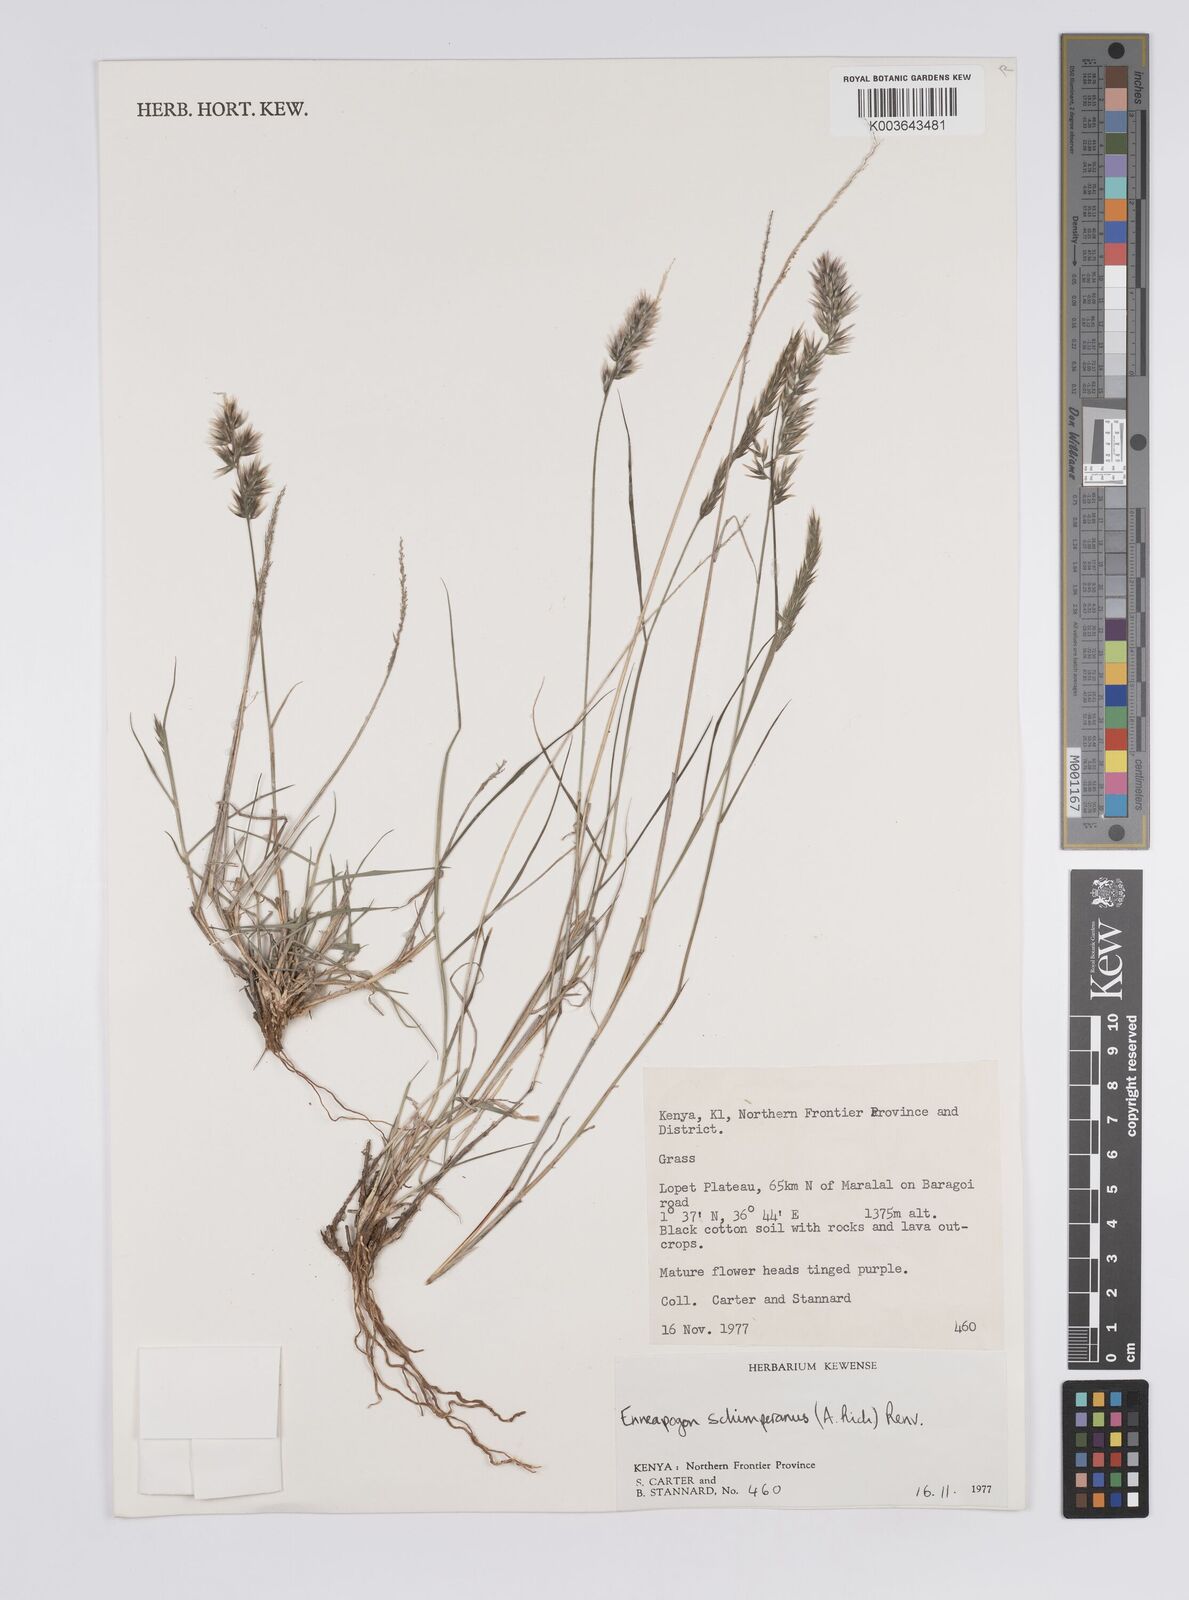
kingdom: Plantae
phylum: Tracheophyta
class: Liliopsida
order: Poales
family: Poaceae
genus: Enneapogon
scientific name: Enneapogon persicus
